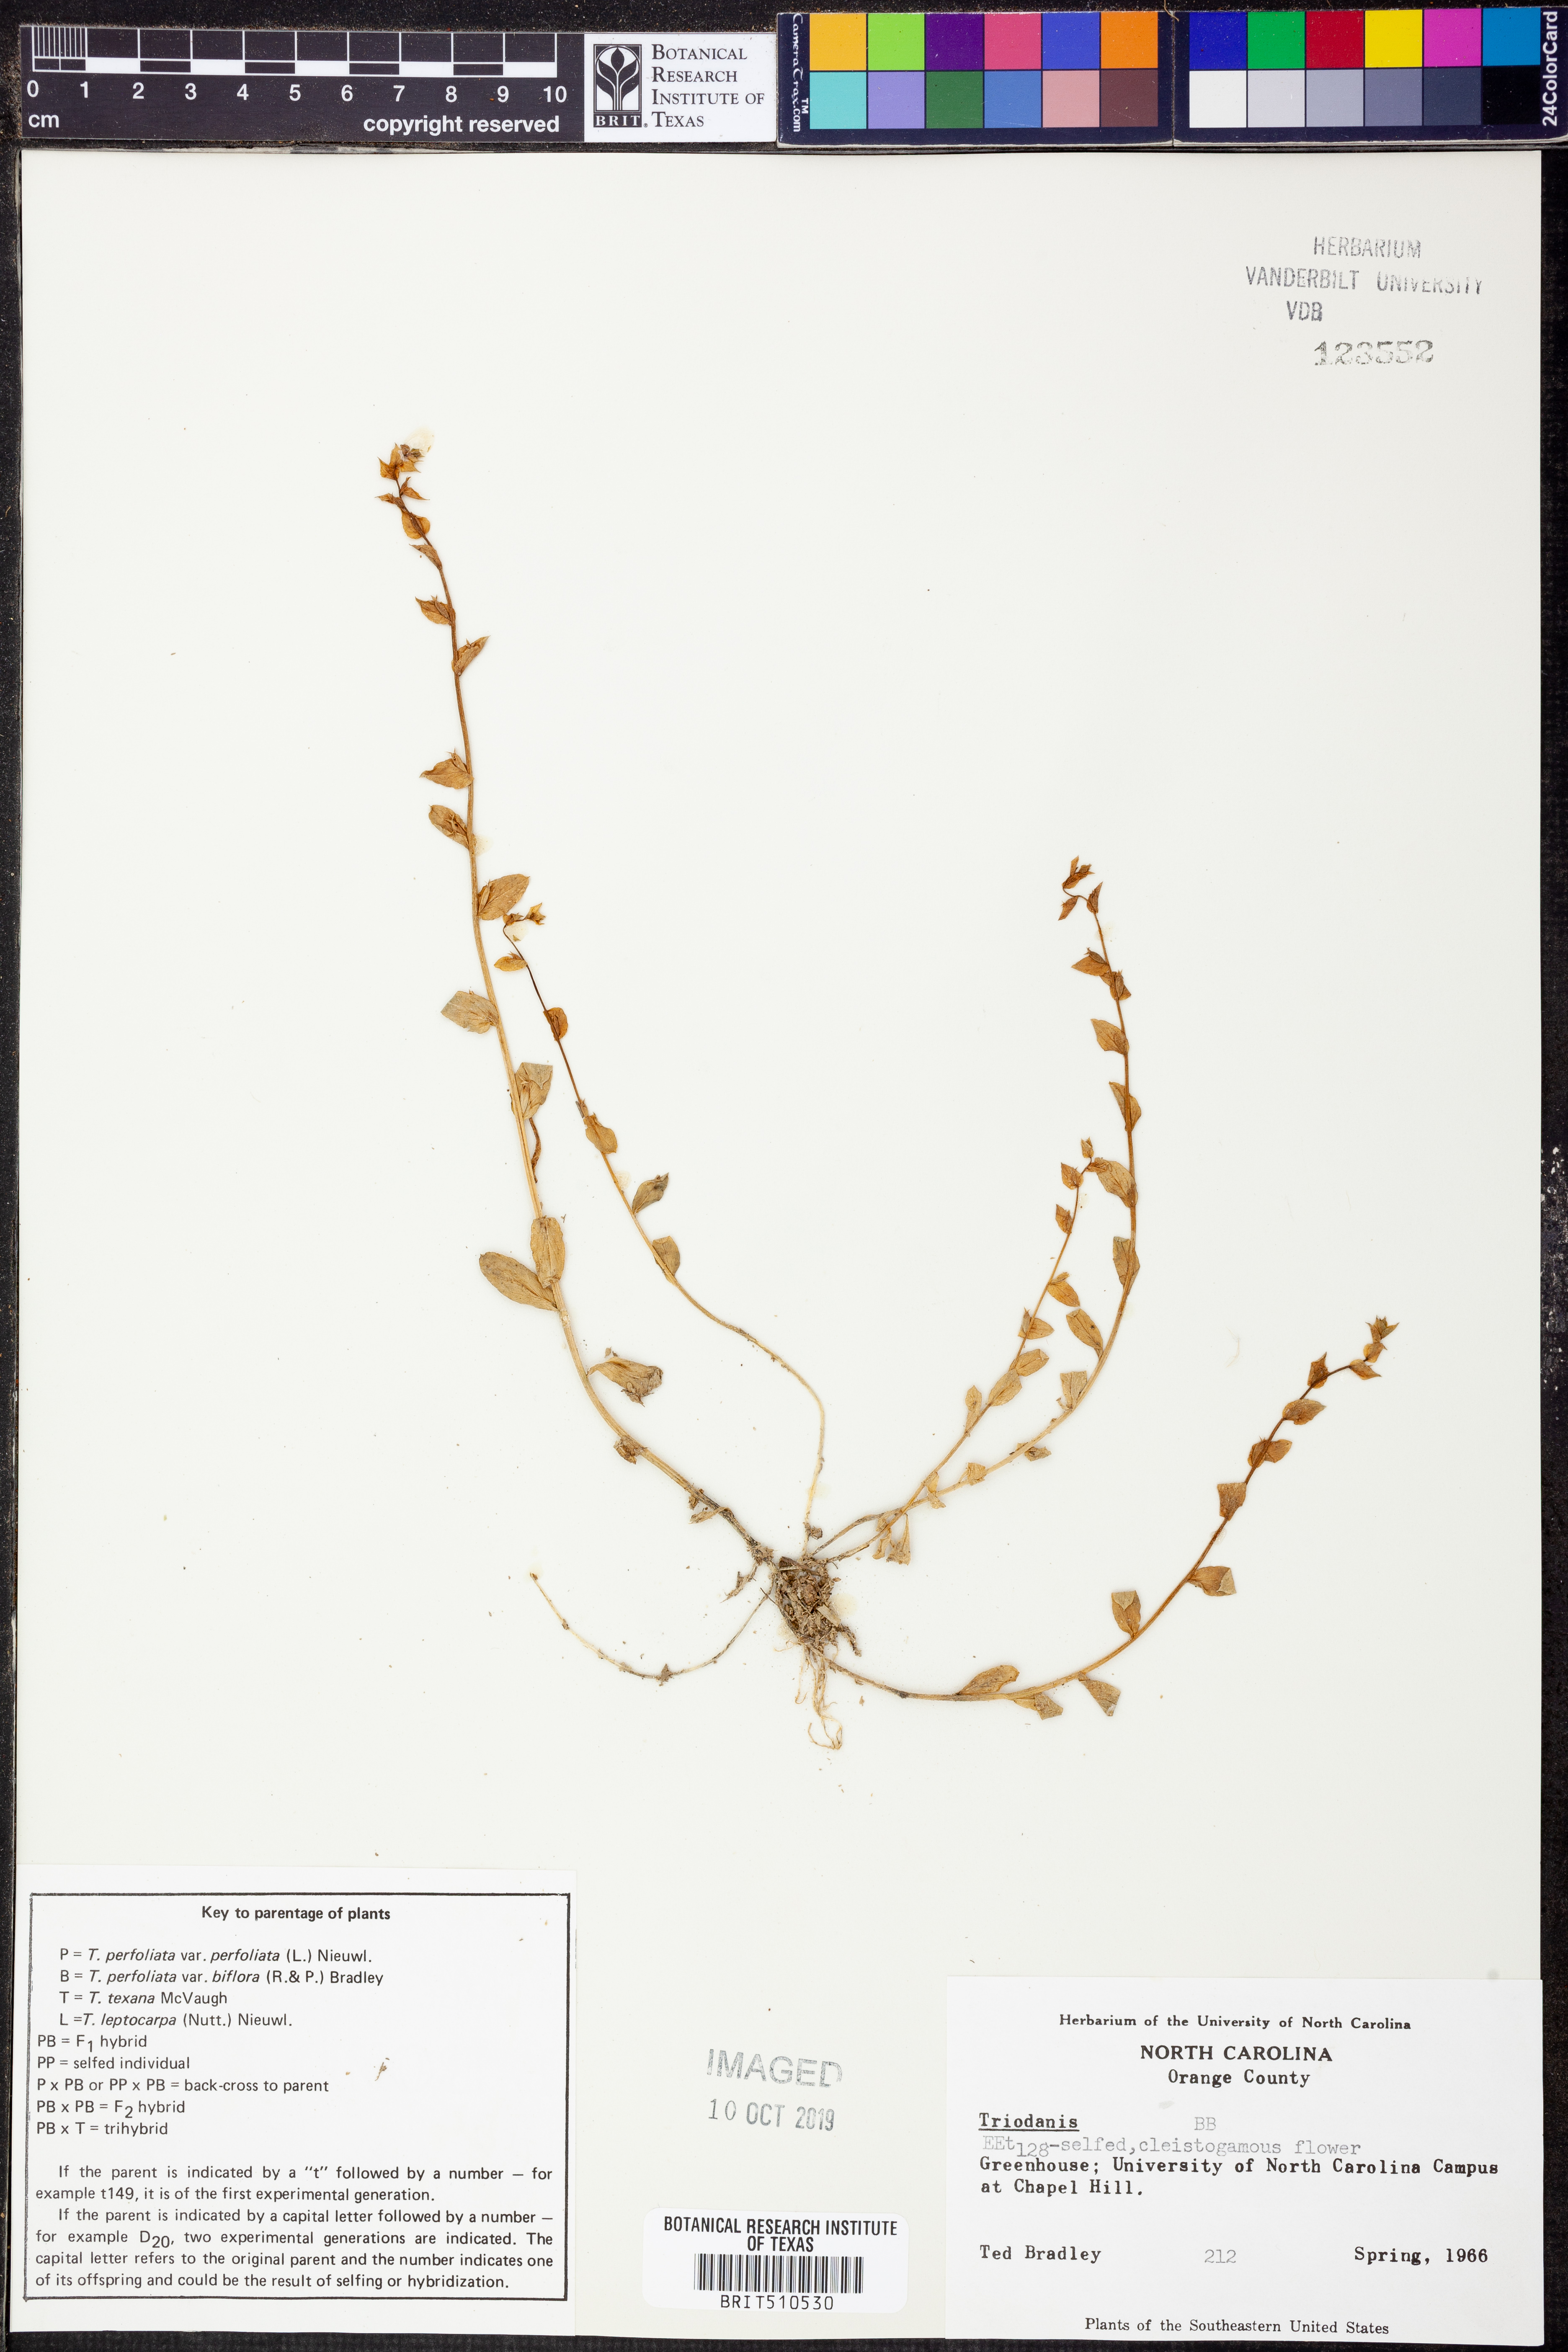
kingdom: Plantae
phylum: Tracheophyta
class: Magnoliopsida
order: Asterales
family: Campanulaceae
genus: Triodanis
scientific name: Triodanis
